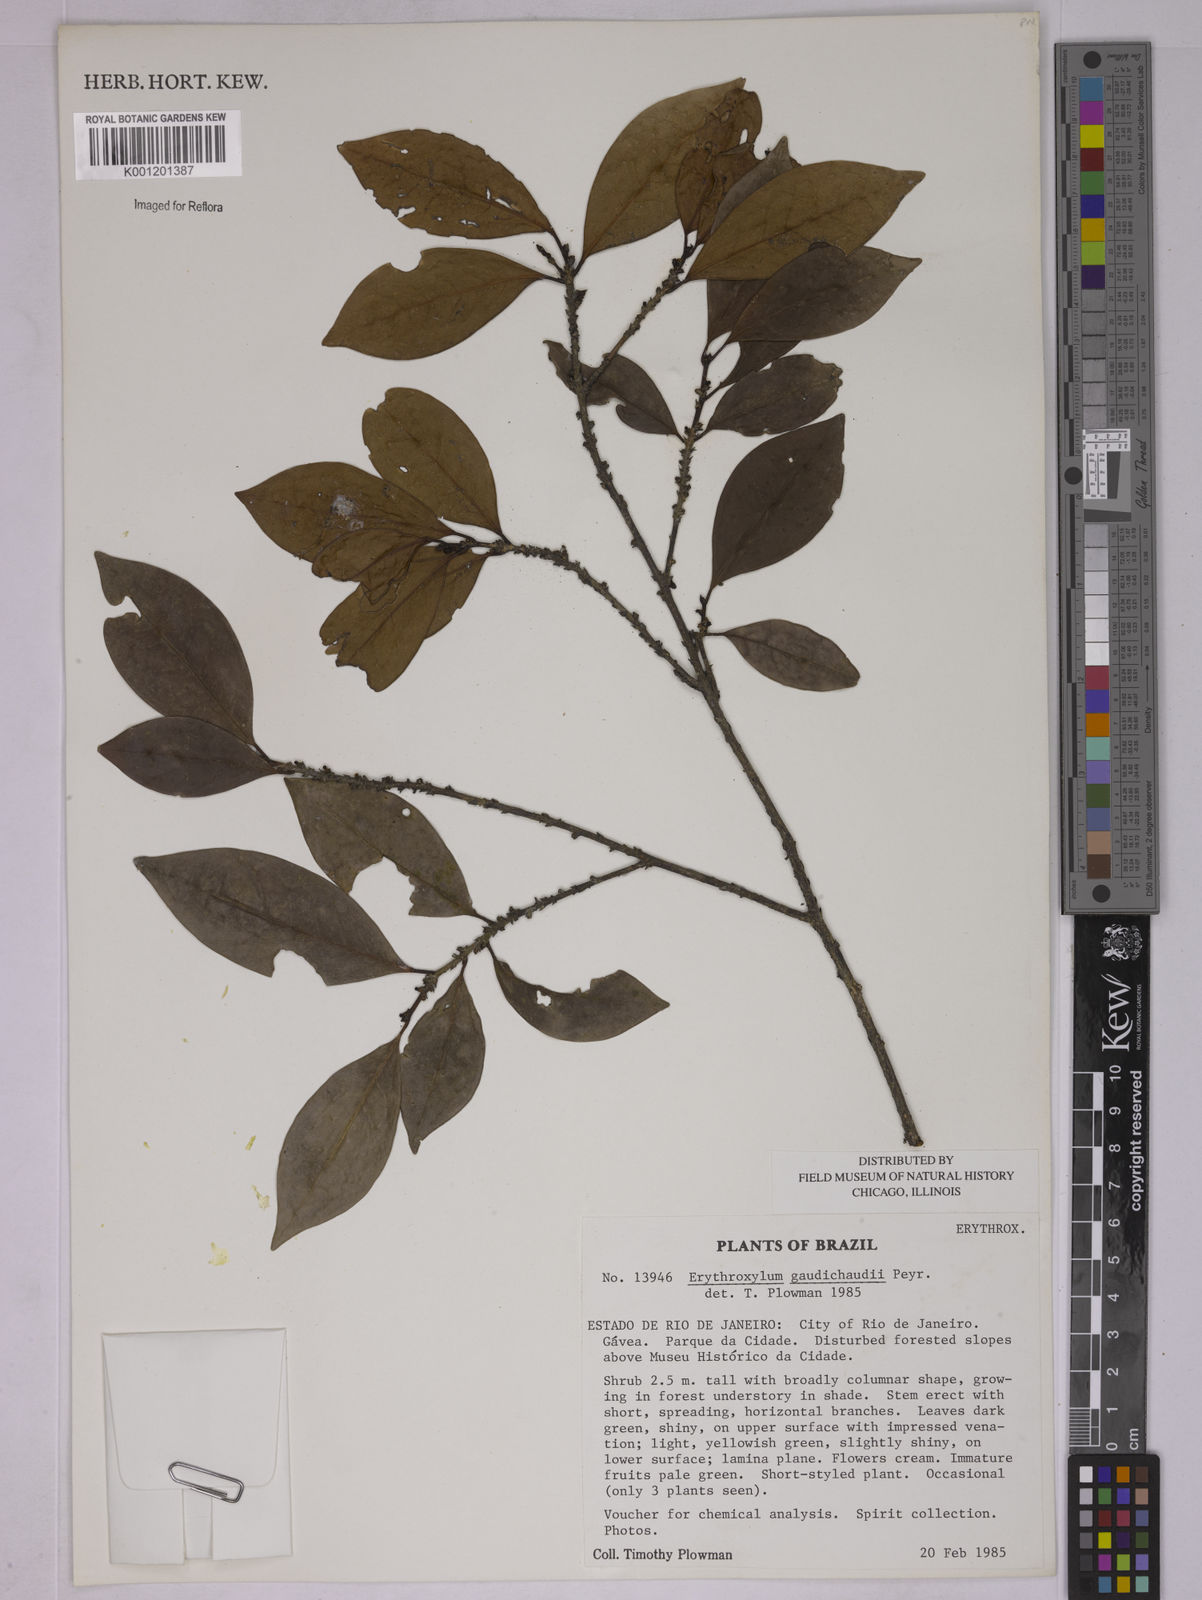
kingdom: Plantae
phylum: Tracheophyta
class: Magnoliopsida
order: Malpighiales
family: Erythroxylaceae
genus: Erythroxylum
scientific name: Erythroxylum gaudichaudii
